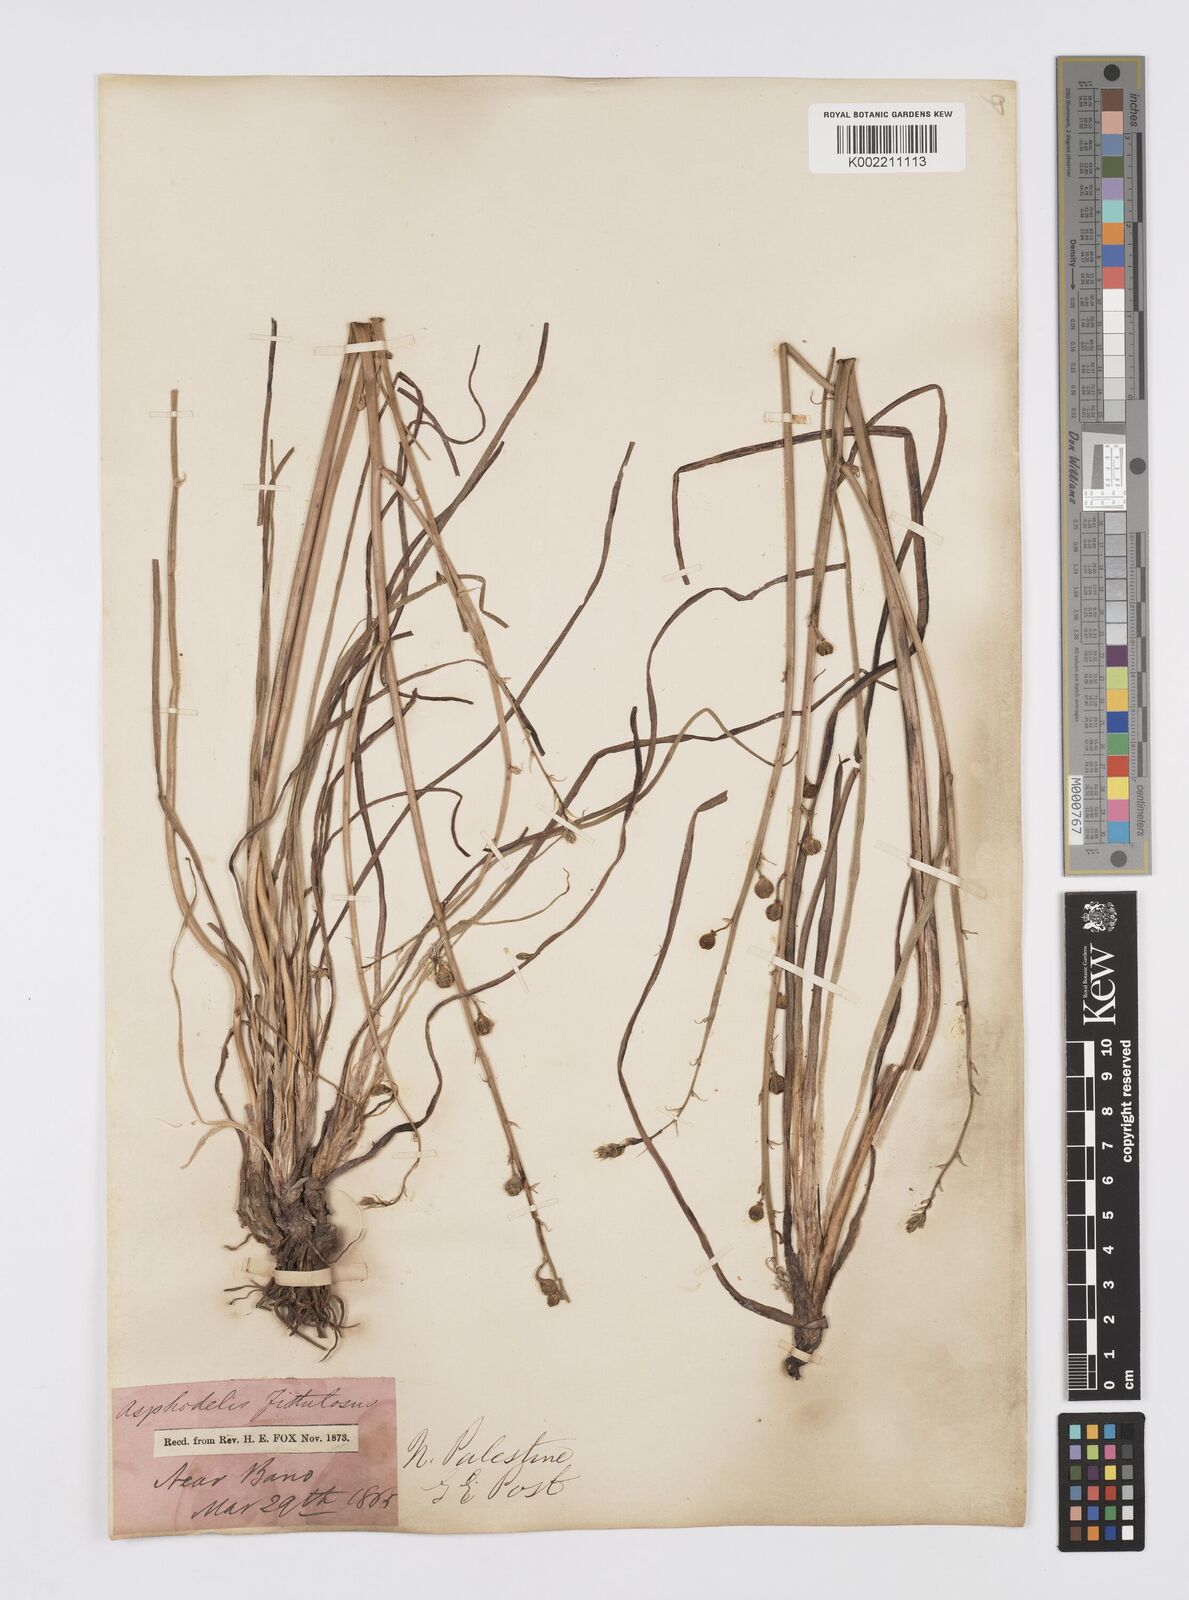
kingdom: Plantae
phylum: Tracheophyta
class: Liliopsida
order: Asparagales
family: Asphodelaceae
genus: Asphodelus
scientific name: Asphodelus fistulosus
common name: Onionweed
